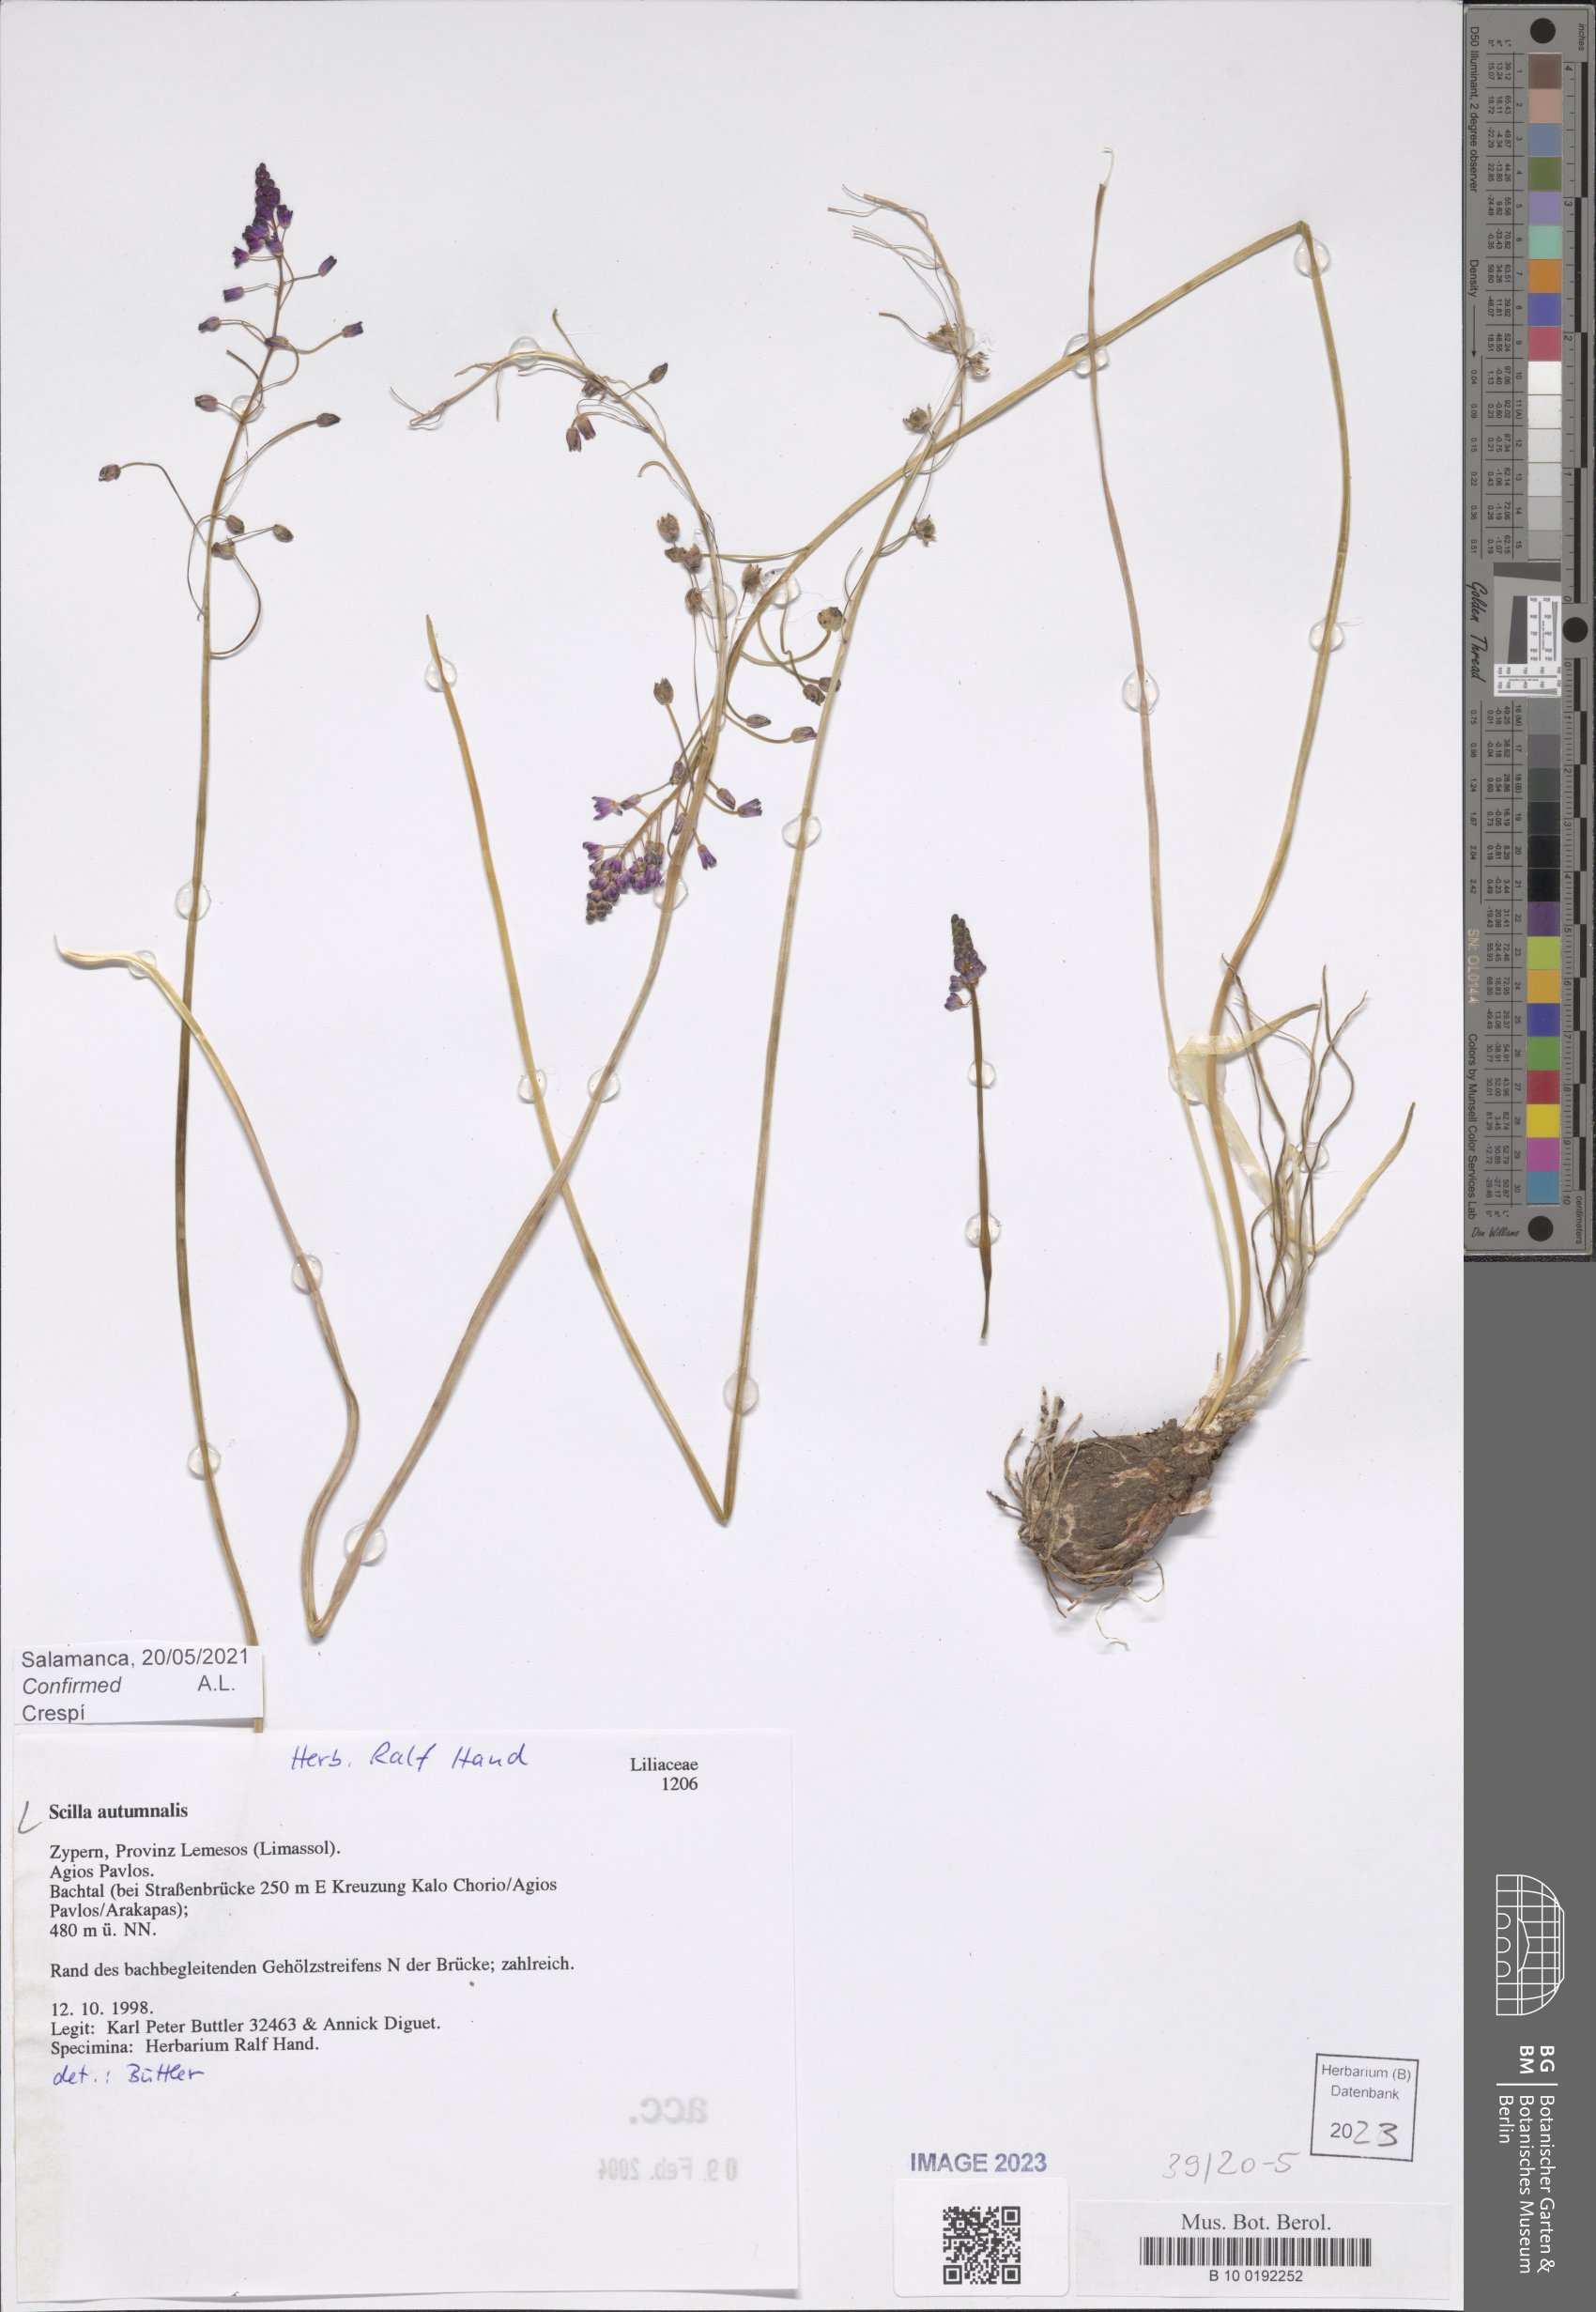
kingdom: Plantae
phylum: Tracheophyta
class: Liliopsida
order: Asparagales
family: Asparagaceae
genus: Prospero
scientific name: Prospero autumnale
